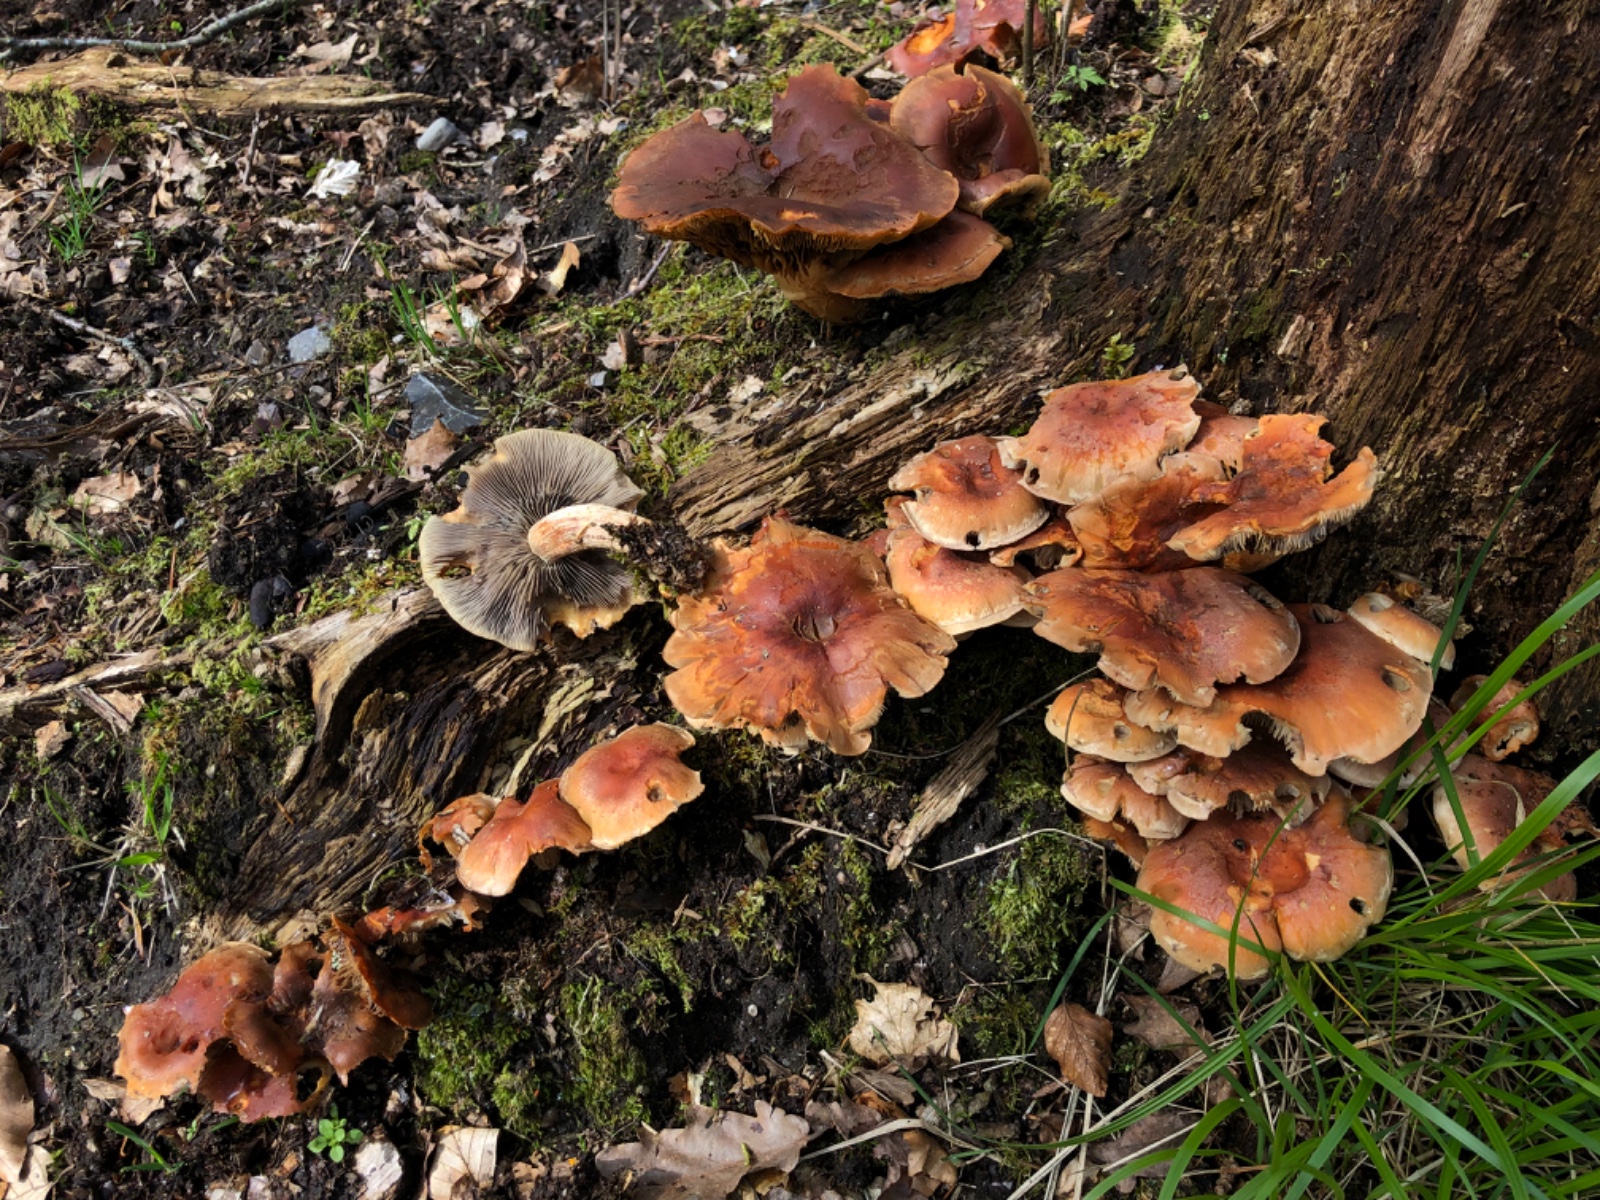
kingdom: Fungi
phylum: Basidiomycota
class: Agaricomycetes
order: Agaricales
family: Strophariaceae
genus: Hypholoma
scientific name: Hypholoma fasciculare
